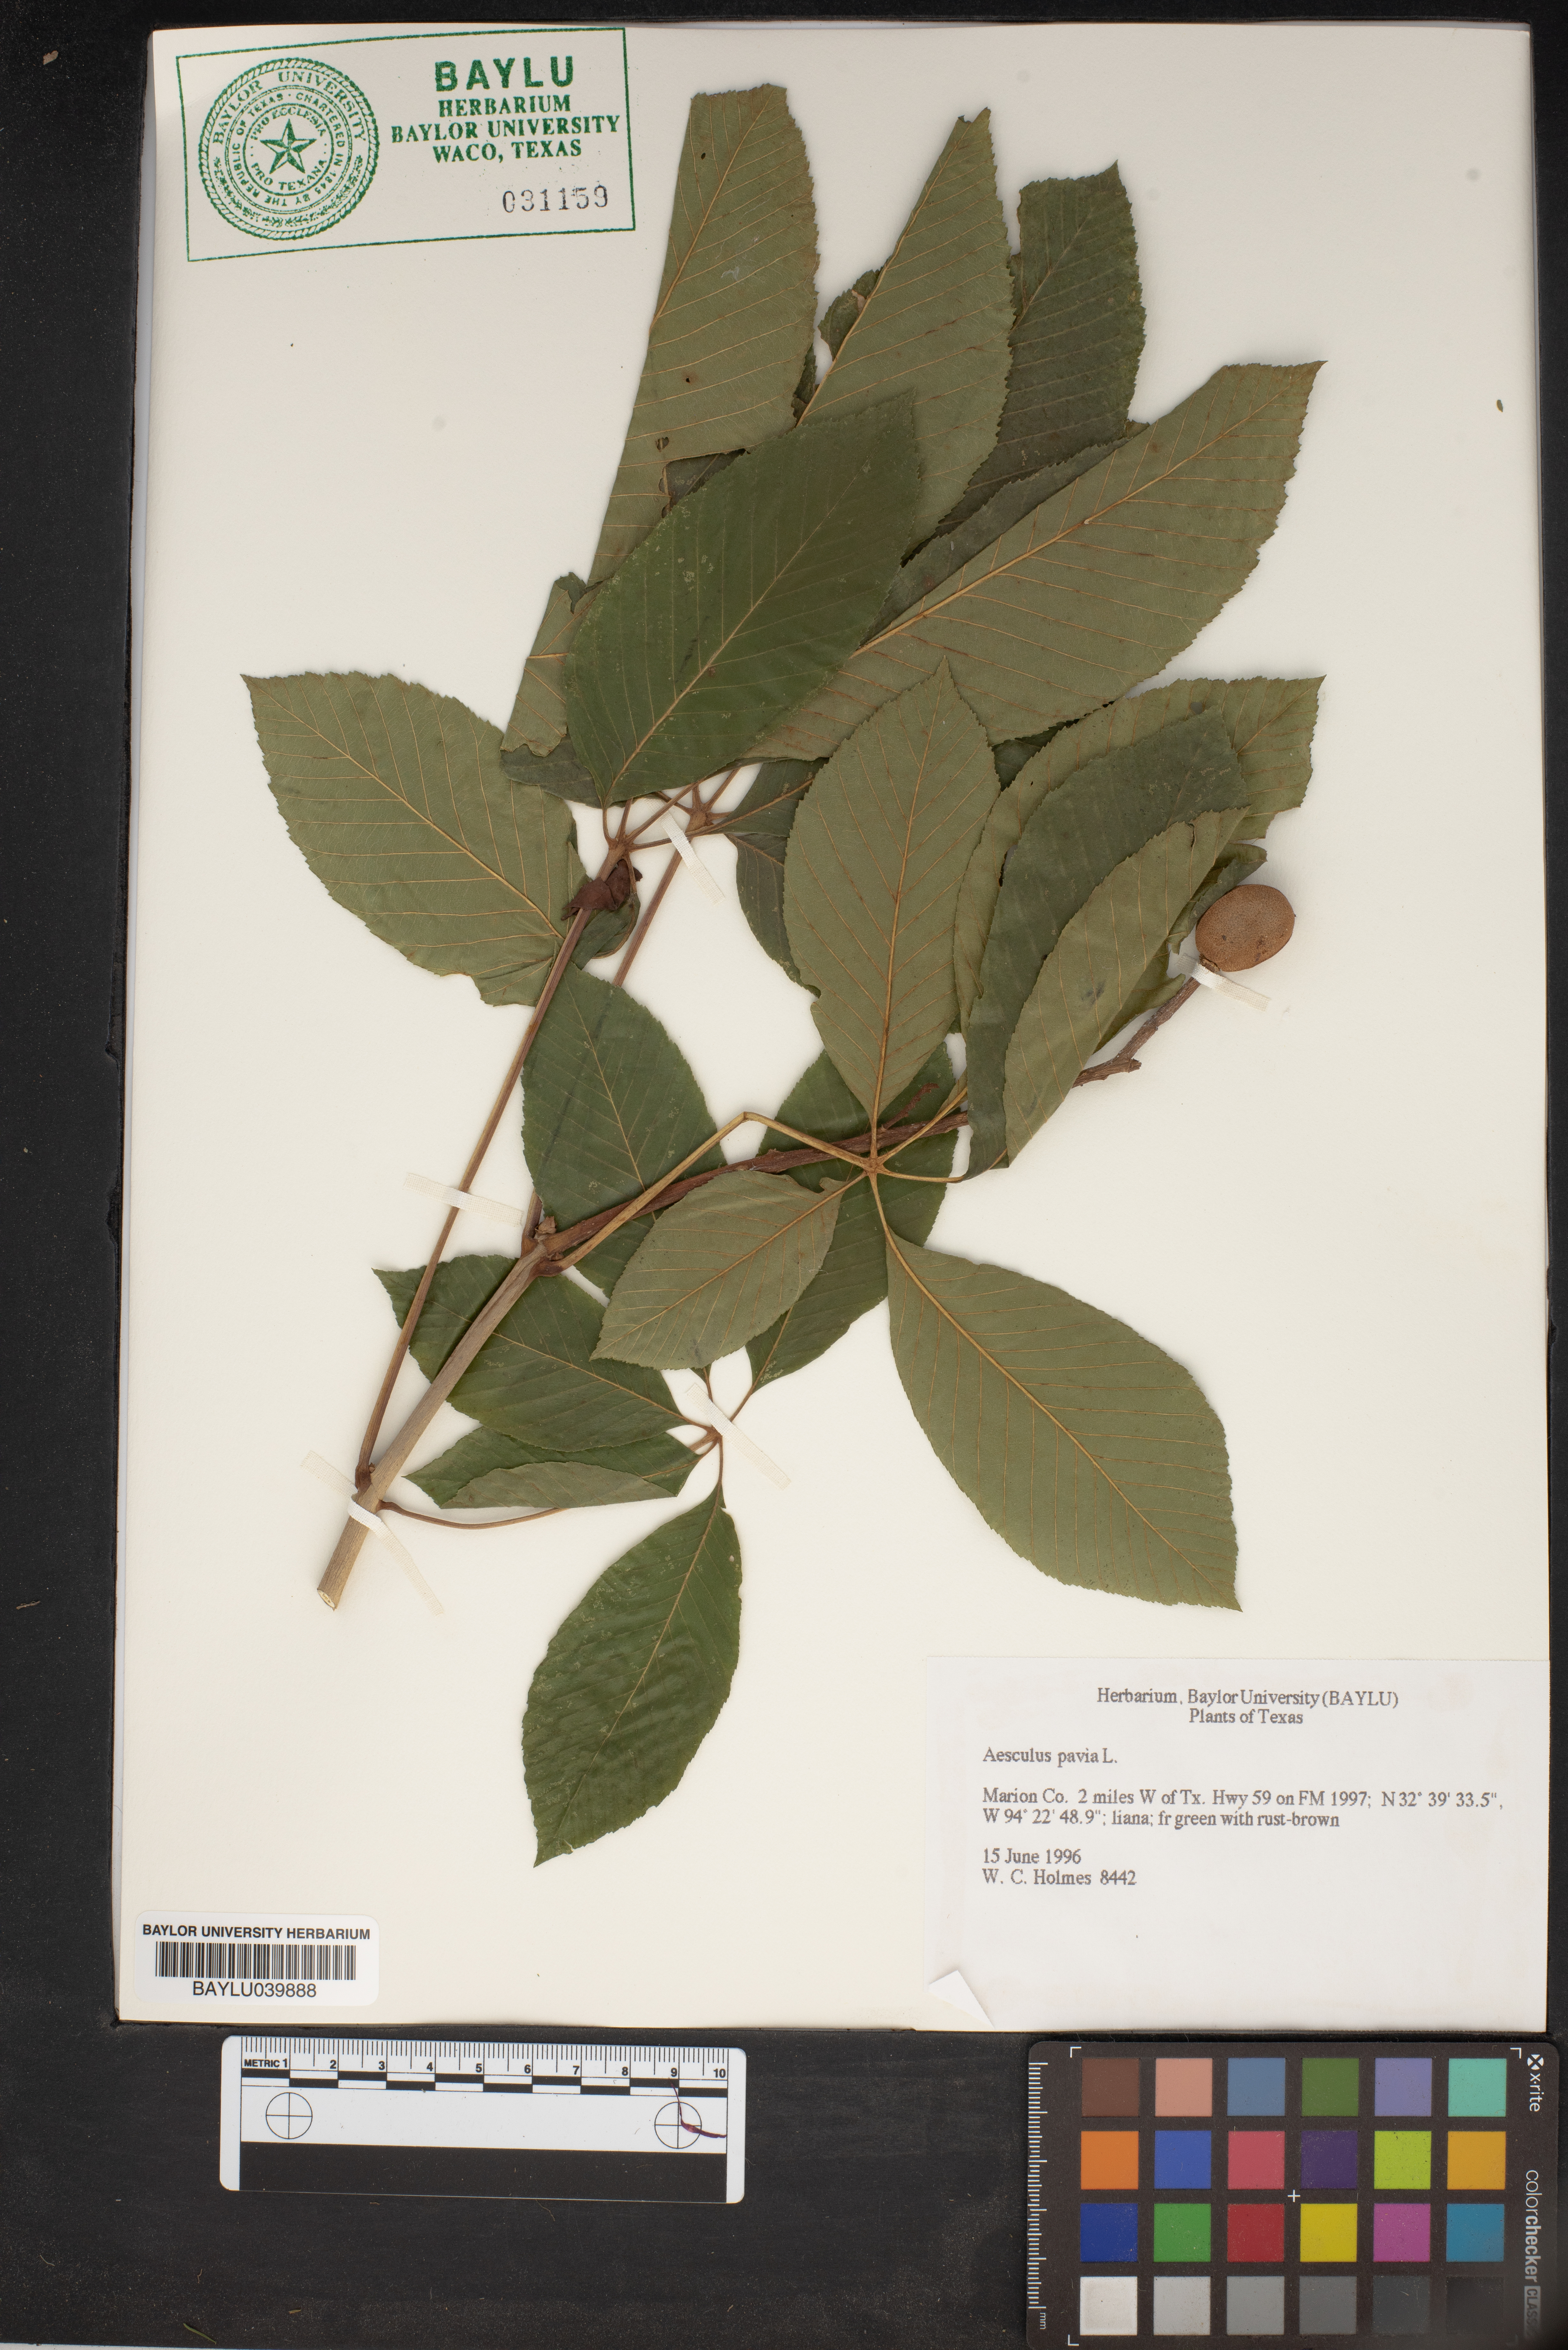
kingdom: Plantae
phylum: Tracheophyta
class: Magnoliopsida
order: Sapindales
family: Sapindaceae
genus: Aesculus
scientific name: Aesculus pavia
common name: Red buckeye
